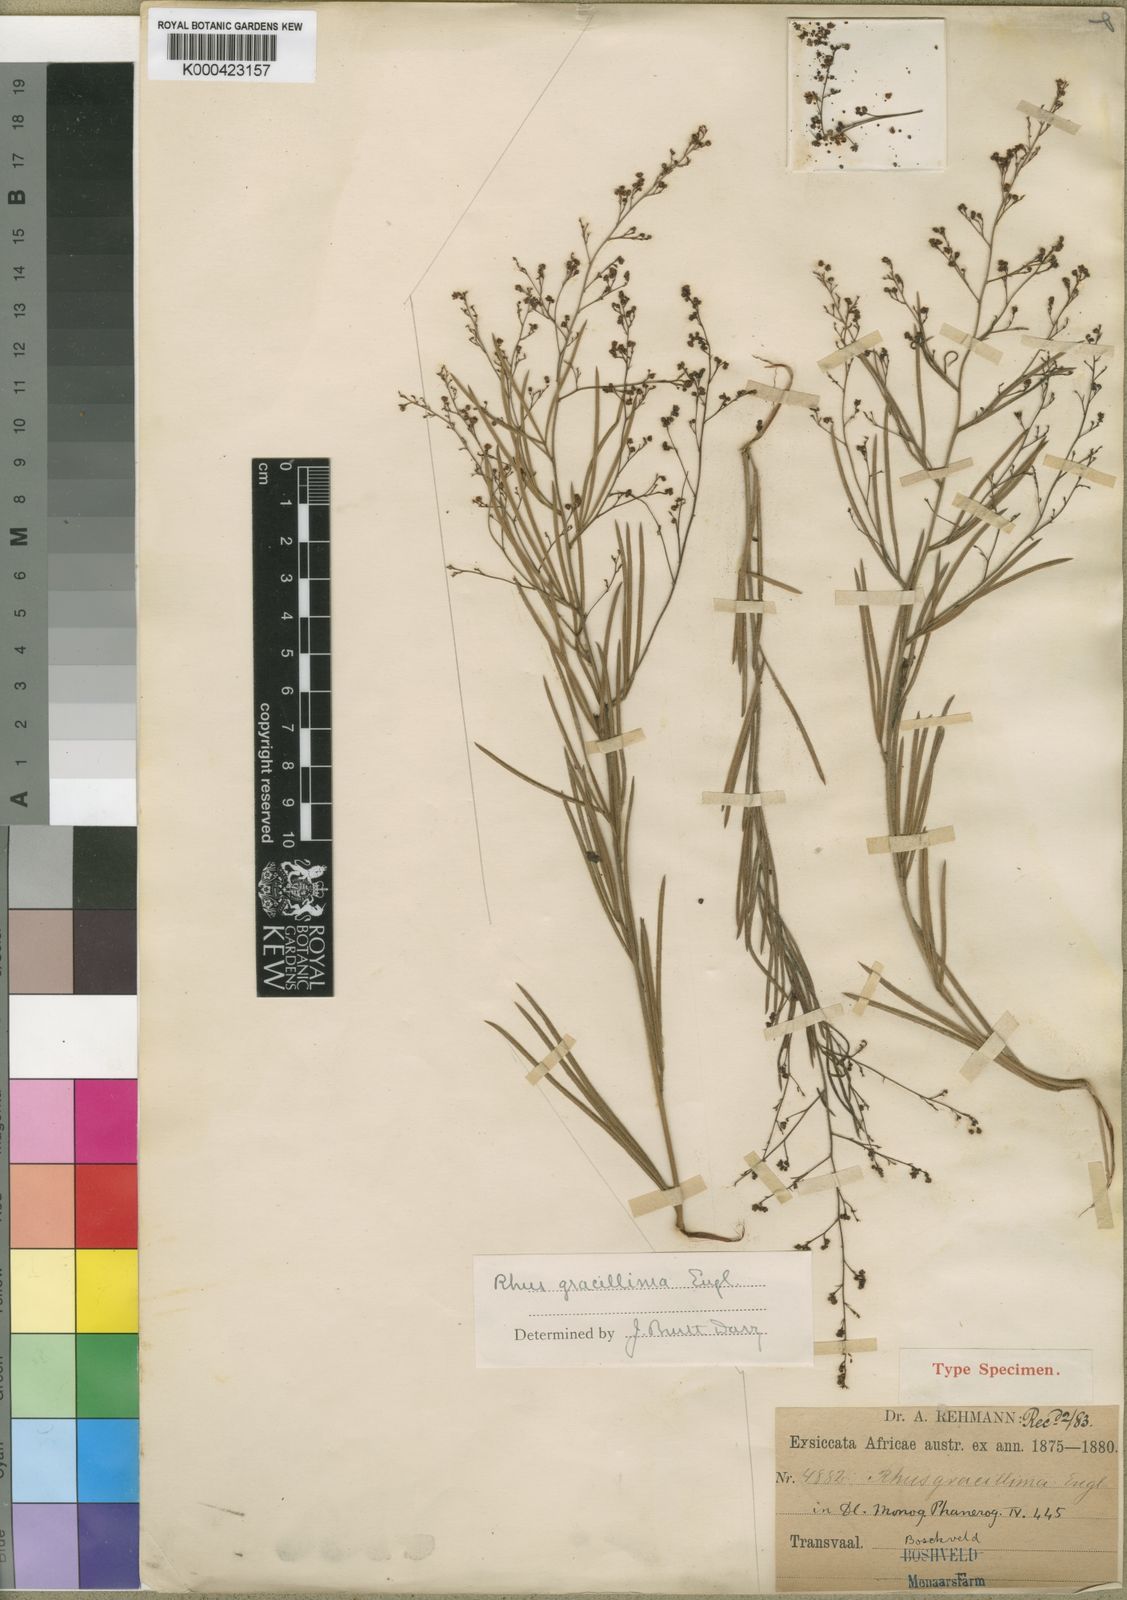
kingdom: Plantae
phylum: Tracheophyta
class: Magnoliopsida
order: Sapindales
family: Anacardiaceae
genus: Searsia
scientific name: Searsia gracillima
